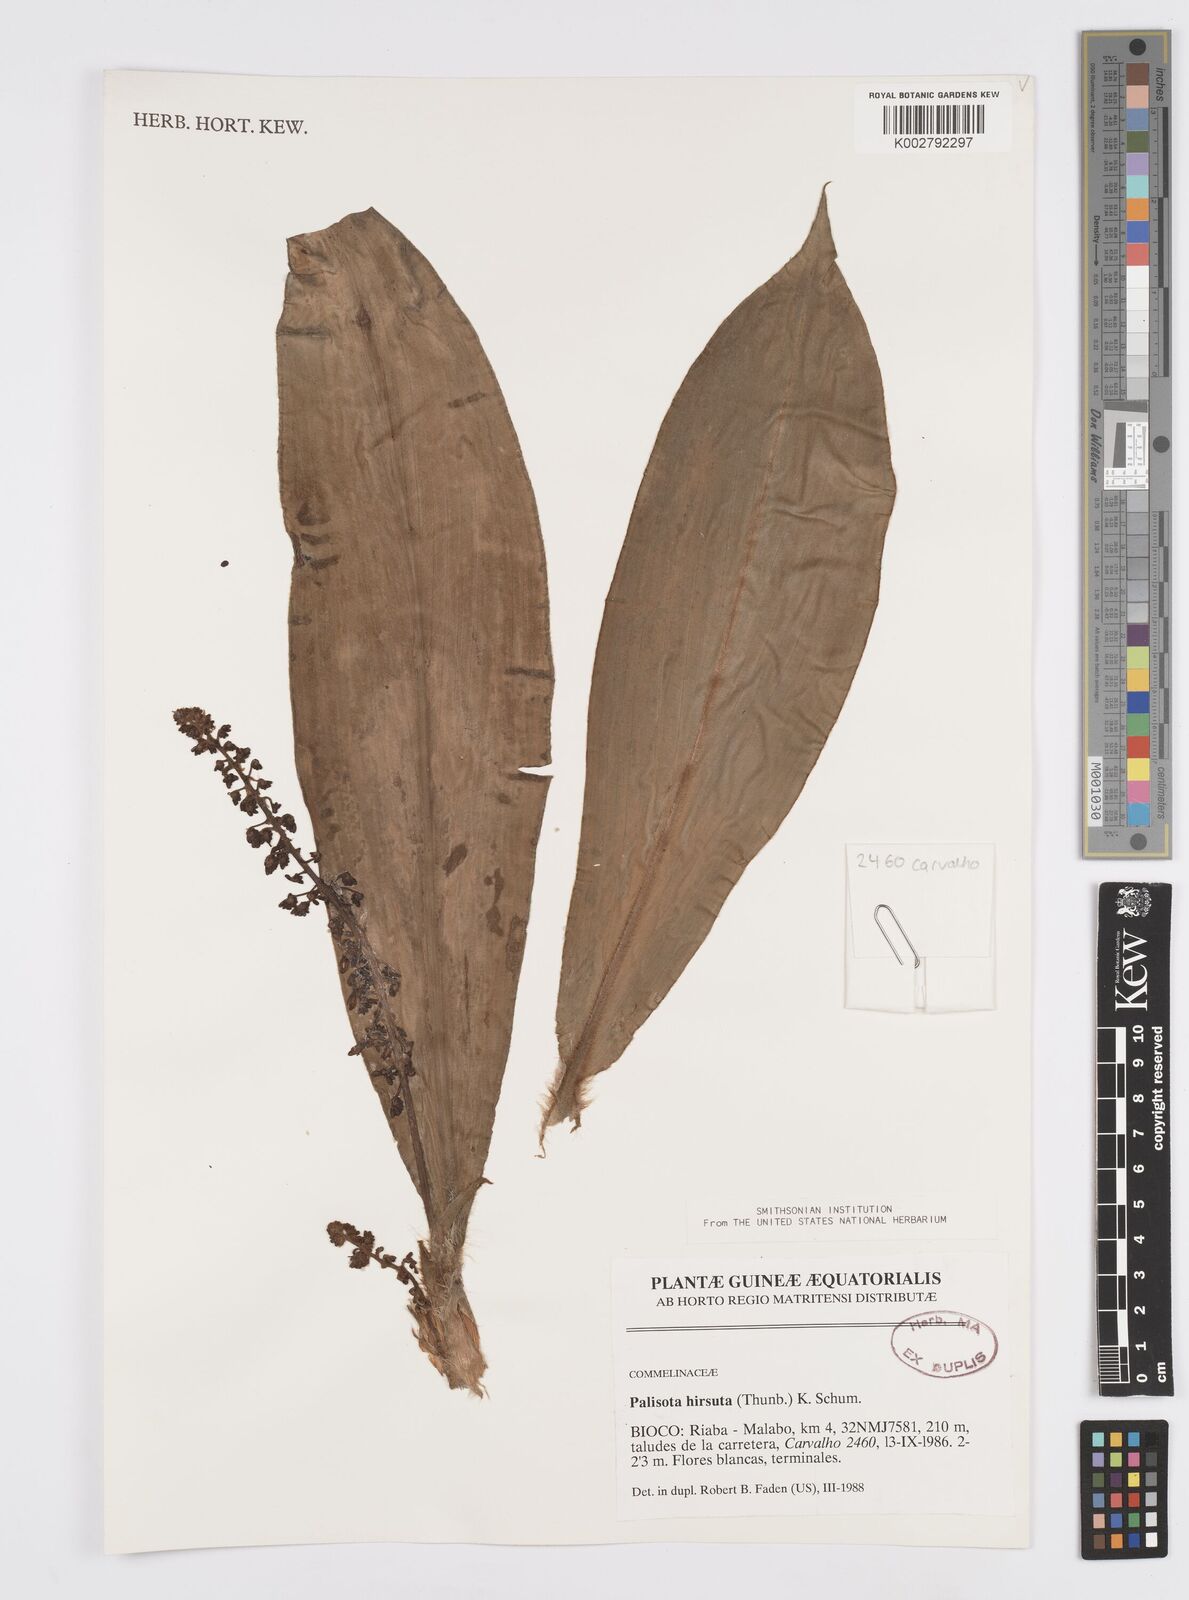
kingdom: Plantae
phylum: Tracheophyta
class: Liliopsida
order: Commelinales
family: Commelinaceae
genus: Palisota
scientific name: Palisota hirsuta
